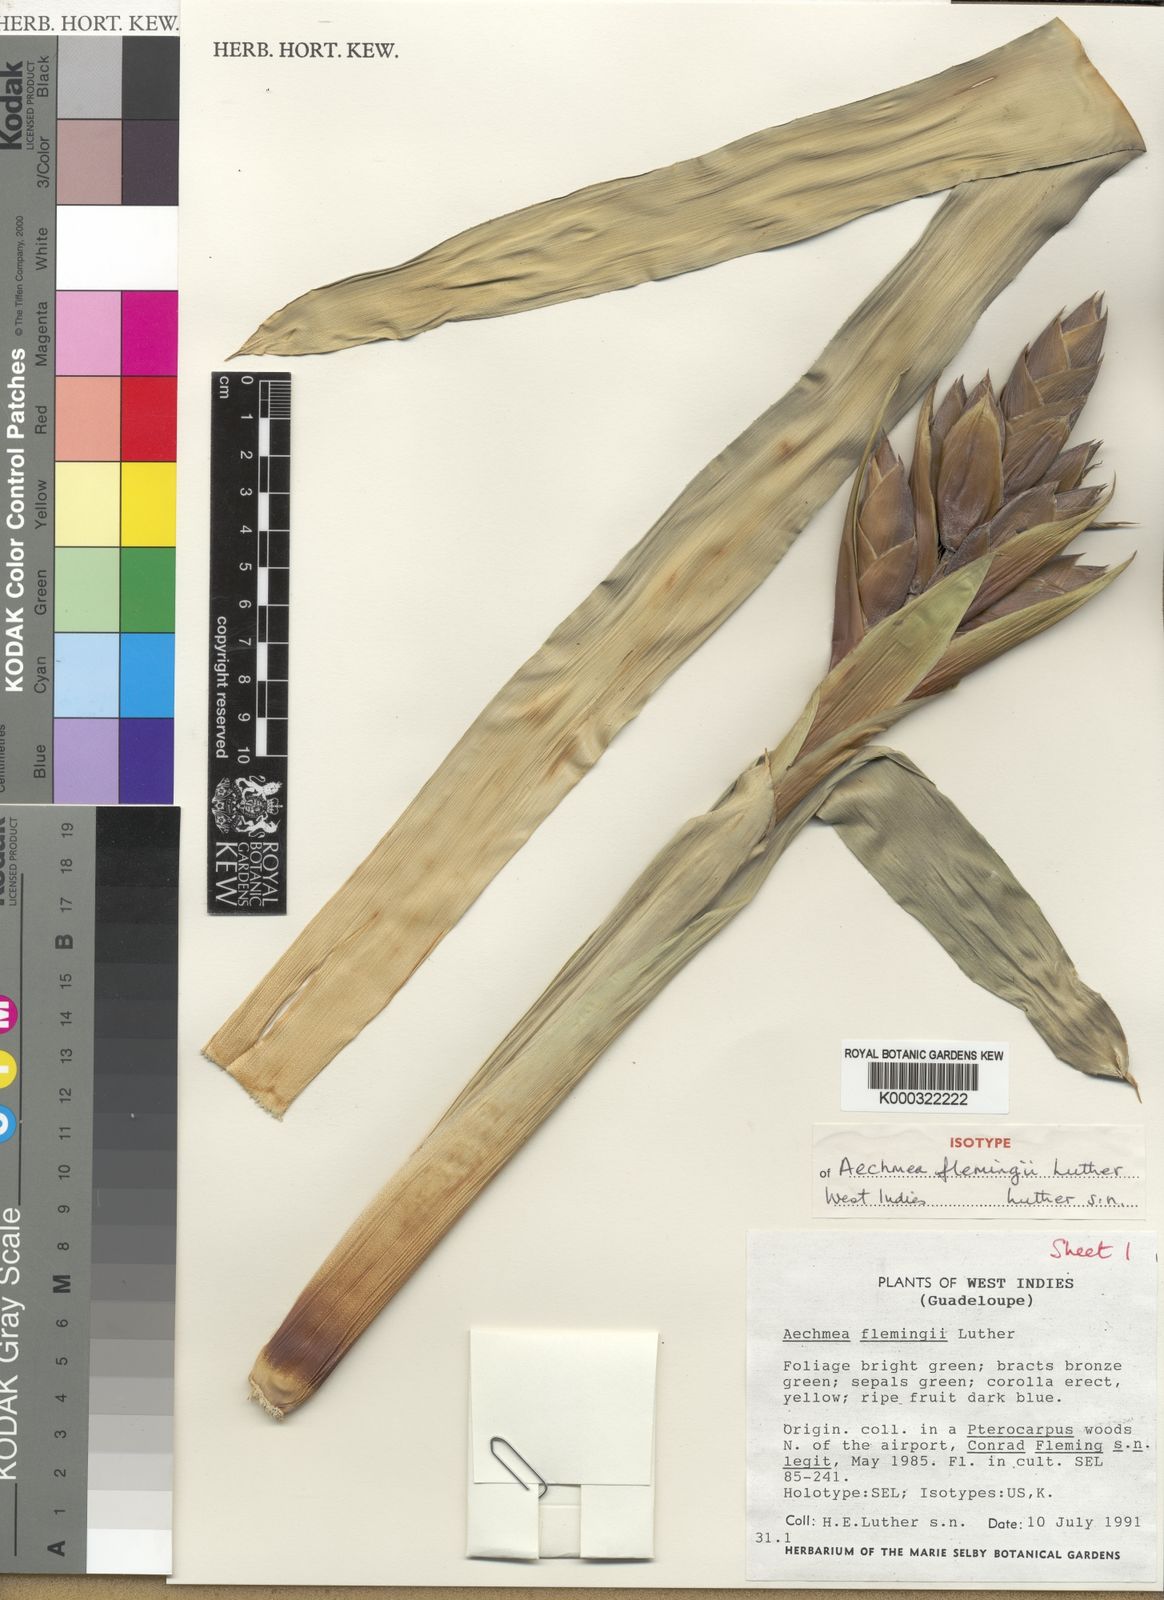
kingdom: Plantae
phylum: Tracheophyta
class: Liliopsida
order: Poales
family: Bromeliaceae
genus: Aechmea
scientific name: Aechmea flemingii
